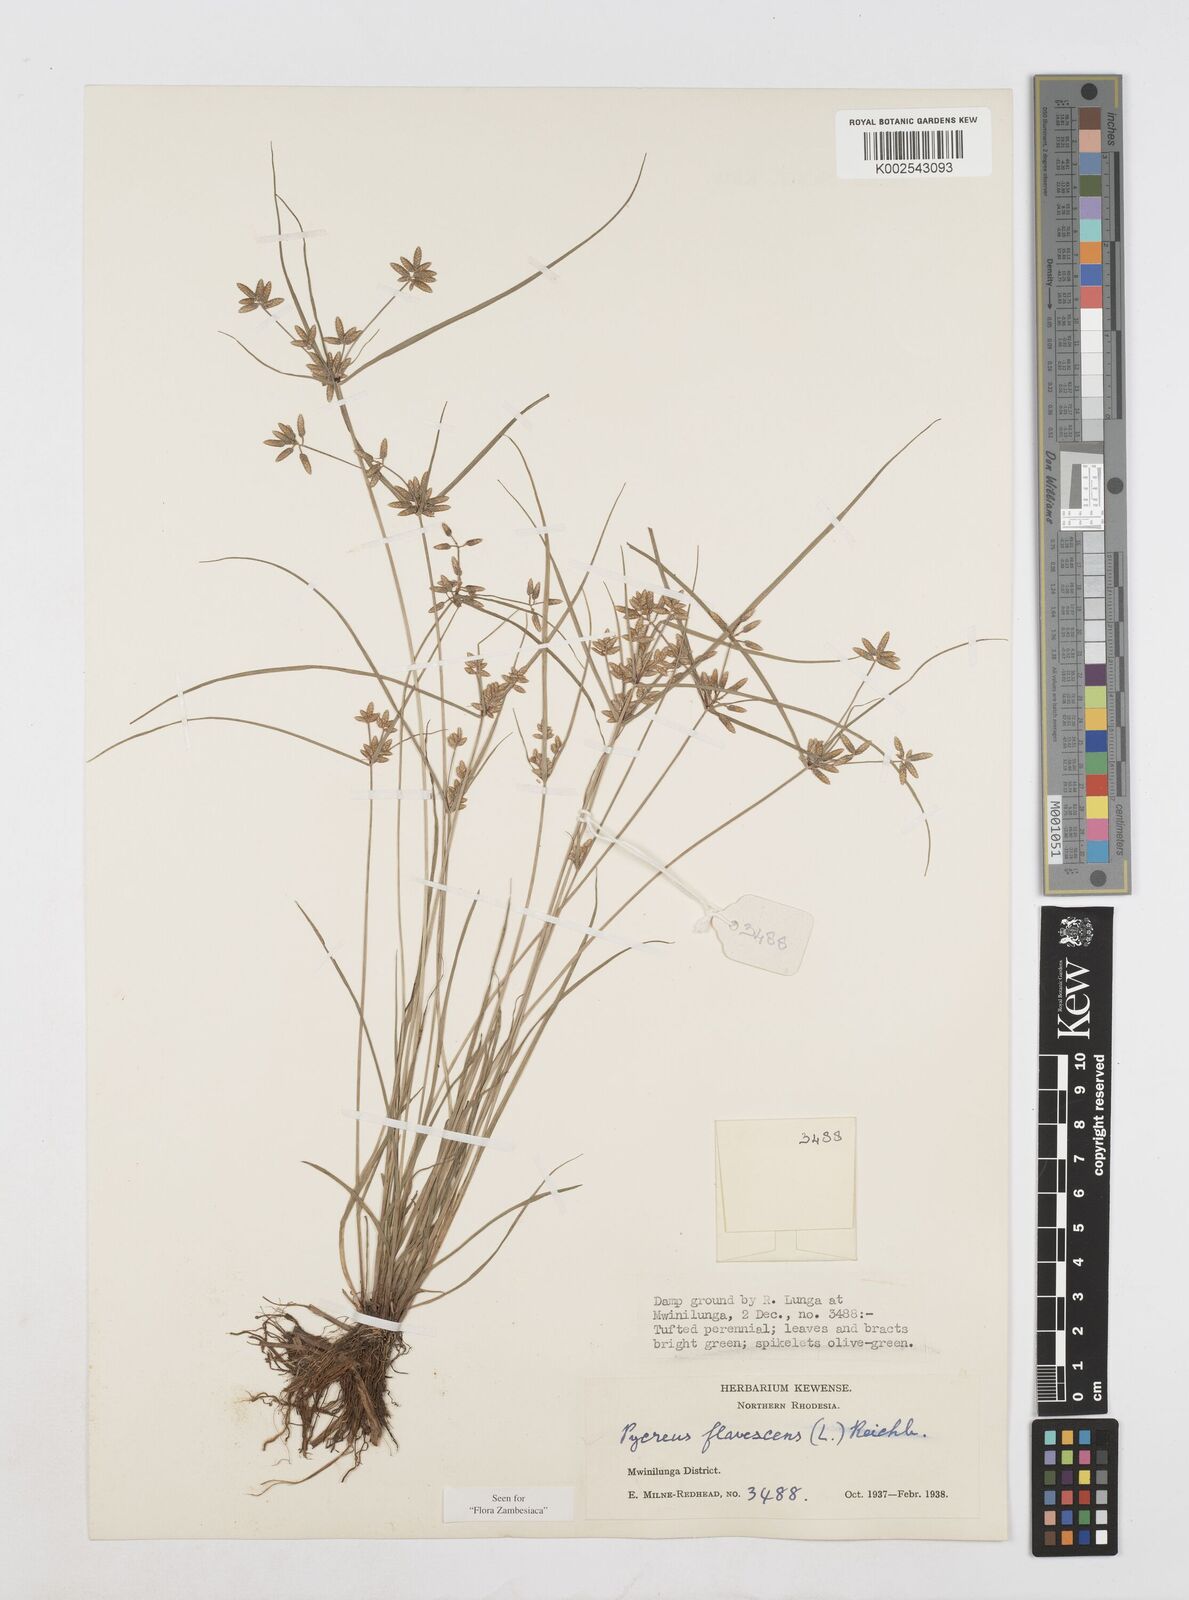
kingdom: Plantae
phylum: Tracheophyta
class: Liliopsida
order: Poales
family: Cyperaceae
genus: Cyperus
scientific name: Cyperus flavescens
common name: Yellow galingale
